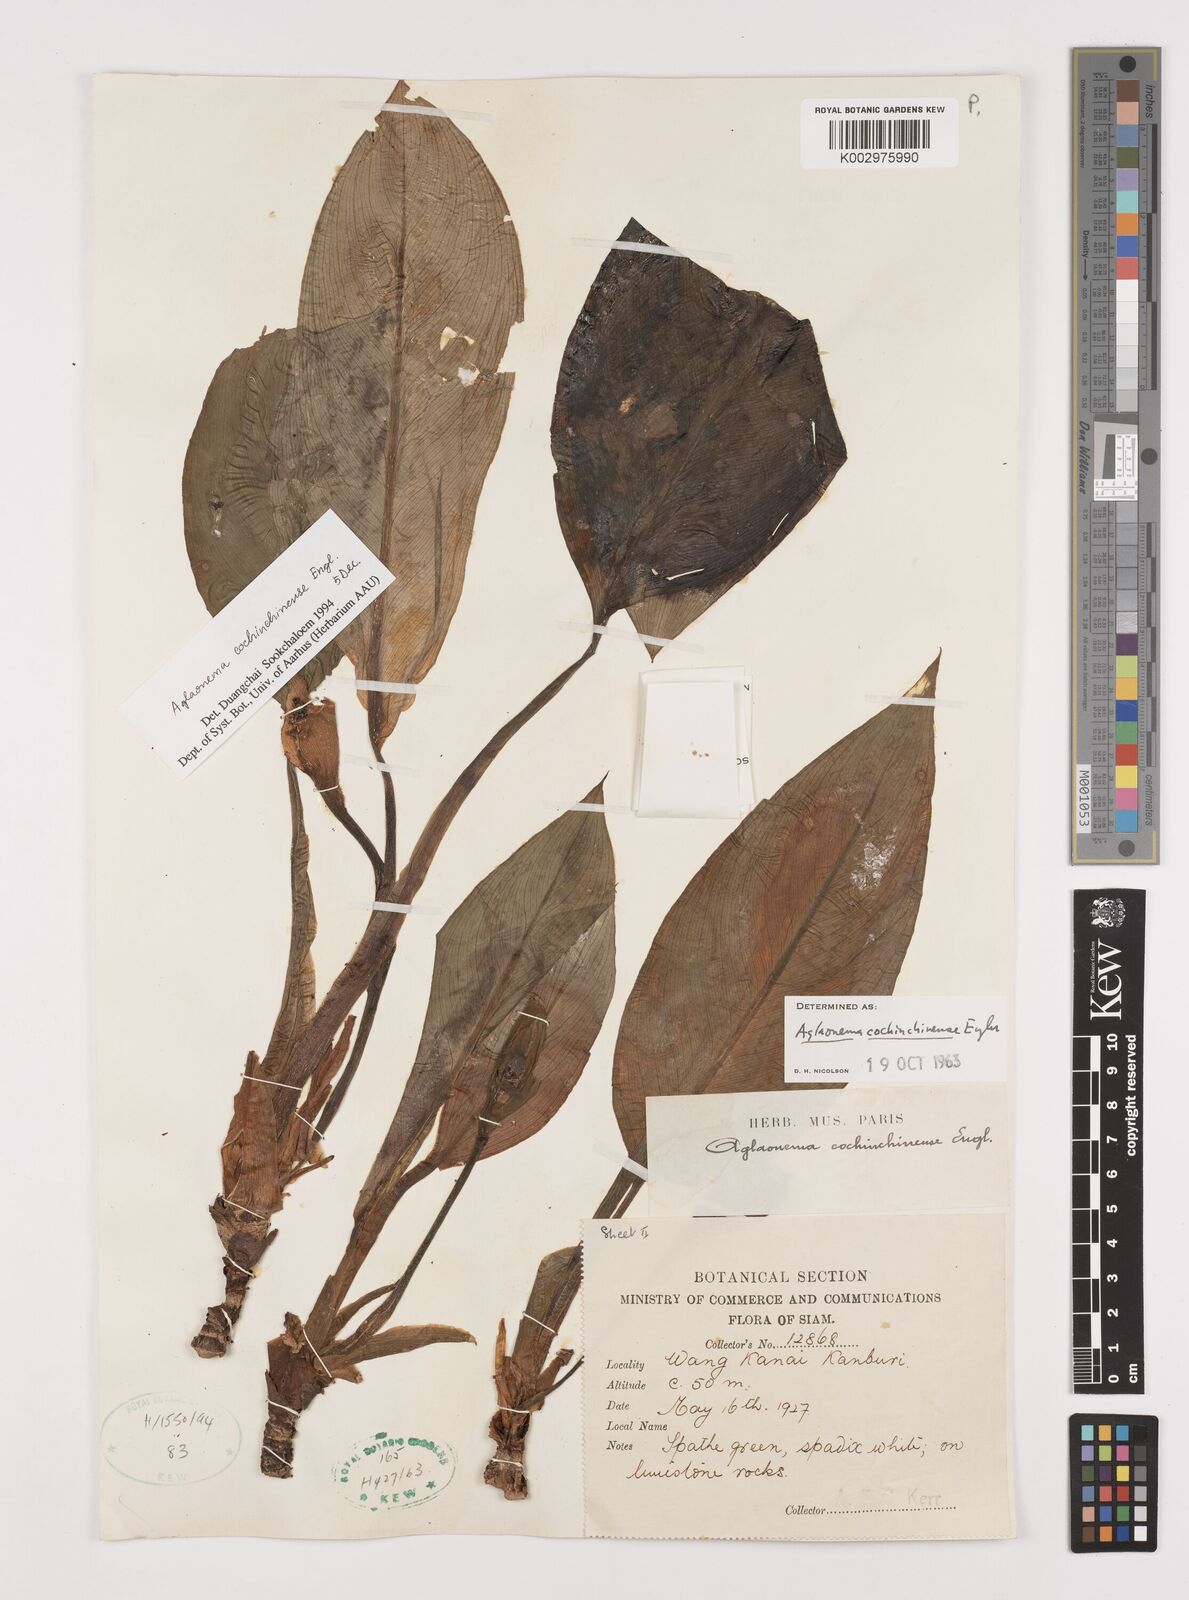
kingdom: Plantae
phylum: Tracheophyta
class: Liliopsida
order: Alismatales
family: Araceae
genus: Aglaonema
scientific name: Aglaonema cochinchinense
